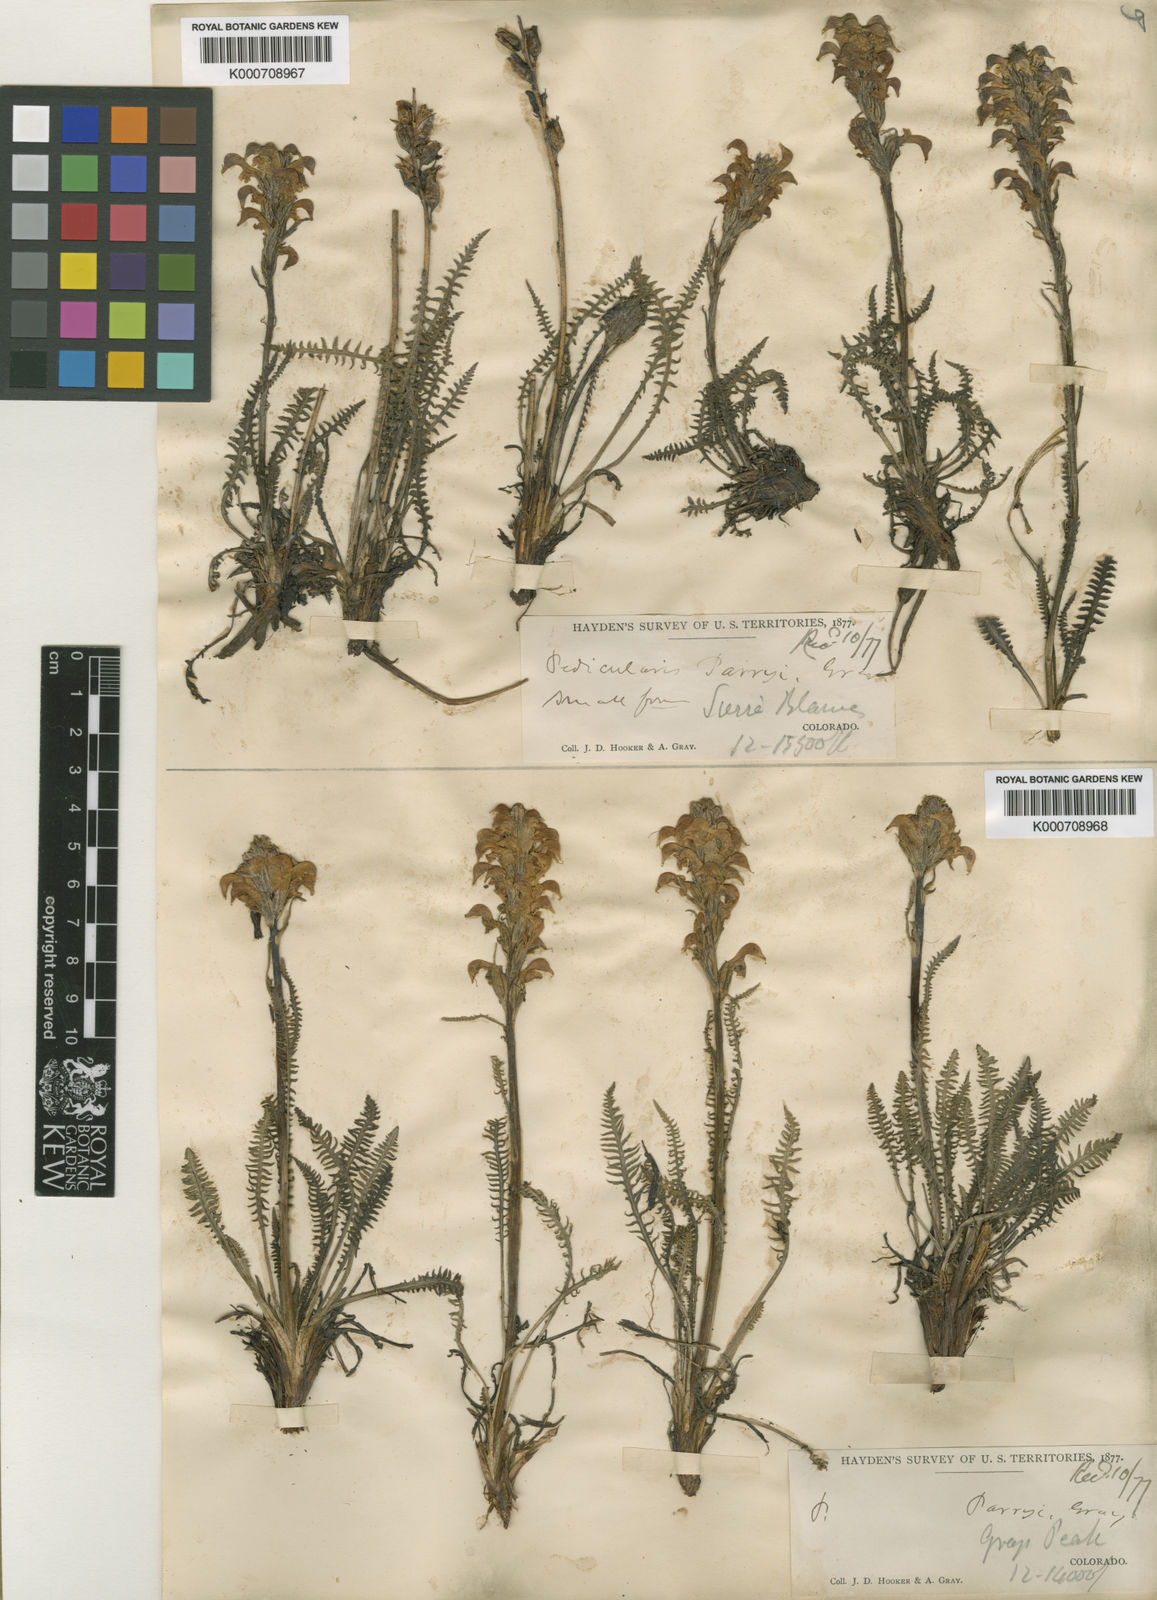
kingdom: Plantae
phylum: Tracheophyta
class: Magnoliopsida
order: Lamiales
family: Orobanchaceae
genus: Pedicularis
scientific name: Pedicularis parryi
